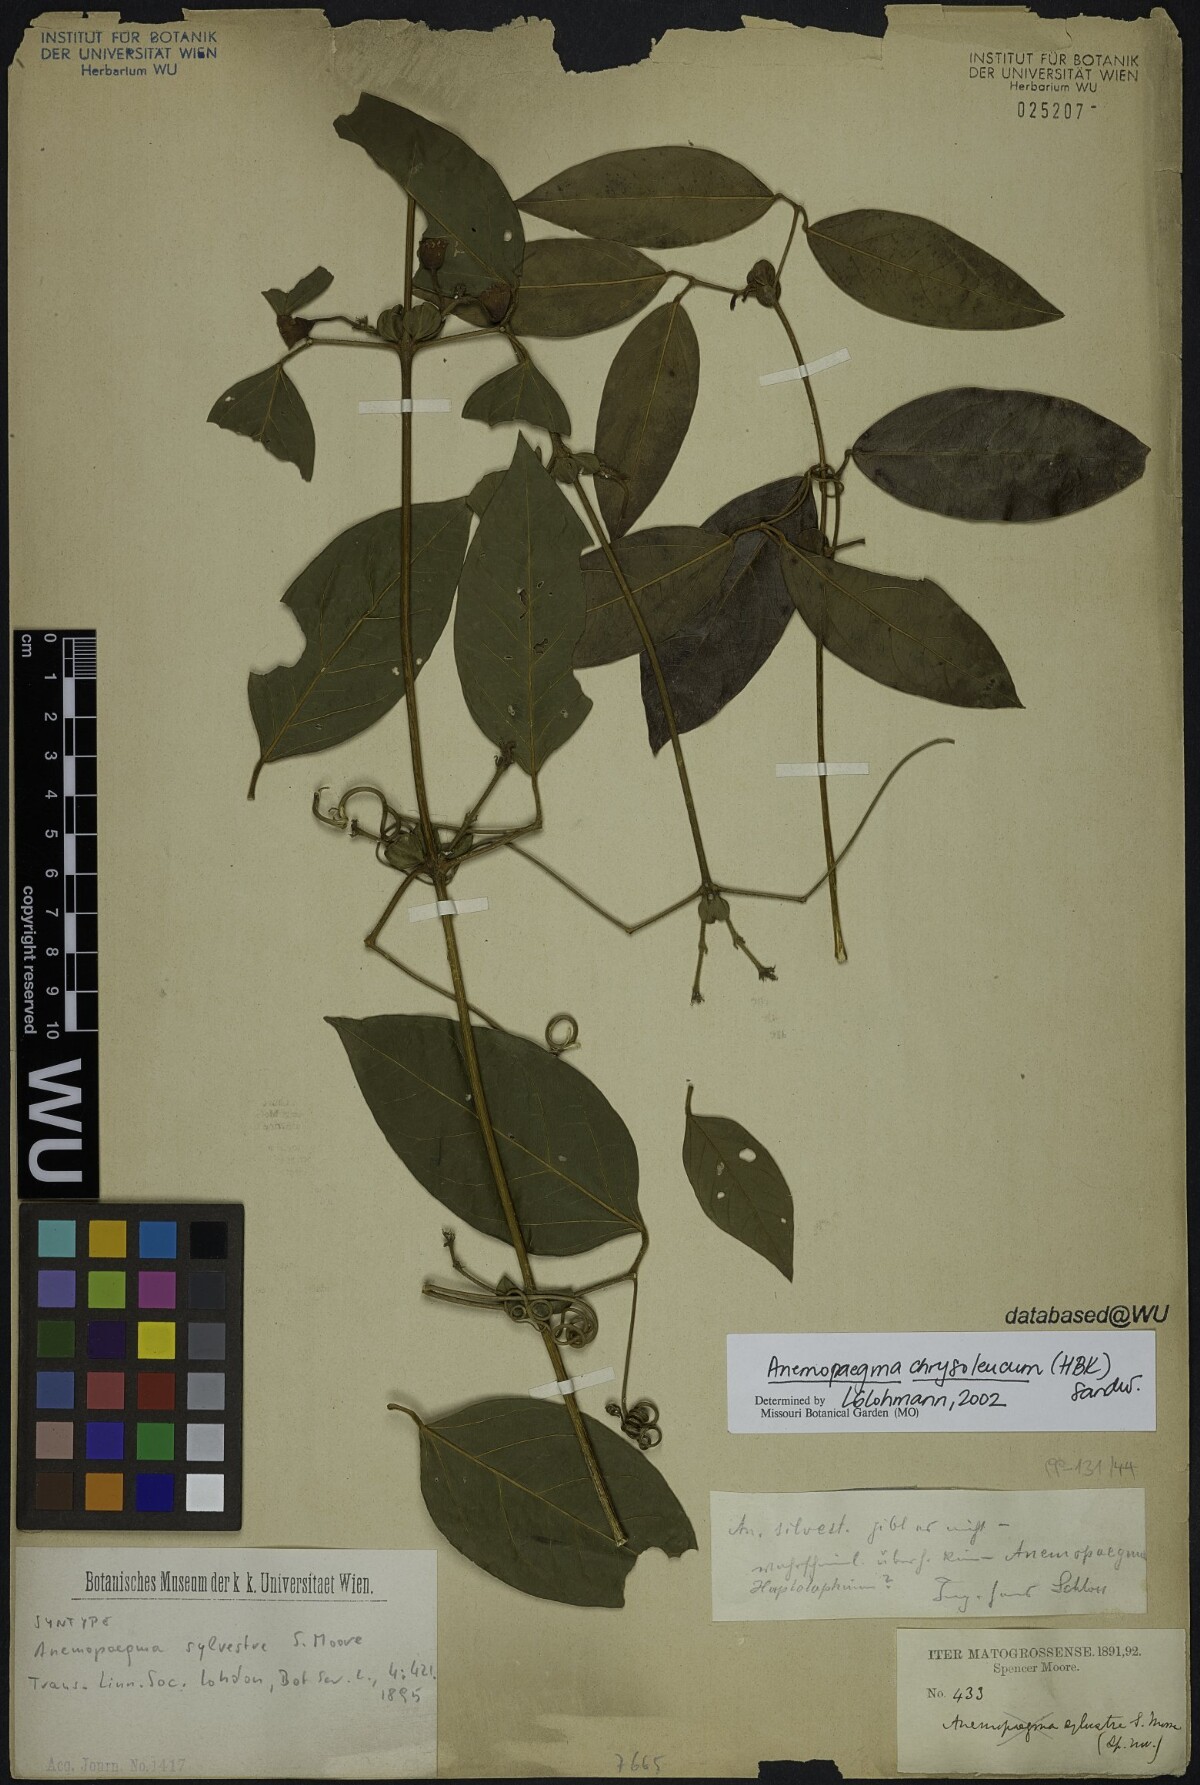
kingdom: Plantae
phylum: Tracheophyta
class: Magnoliopsida
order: Lamiales
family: Bignoniaceae
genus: Anemopaegma
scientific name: Anemopaegma flavum
